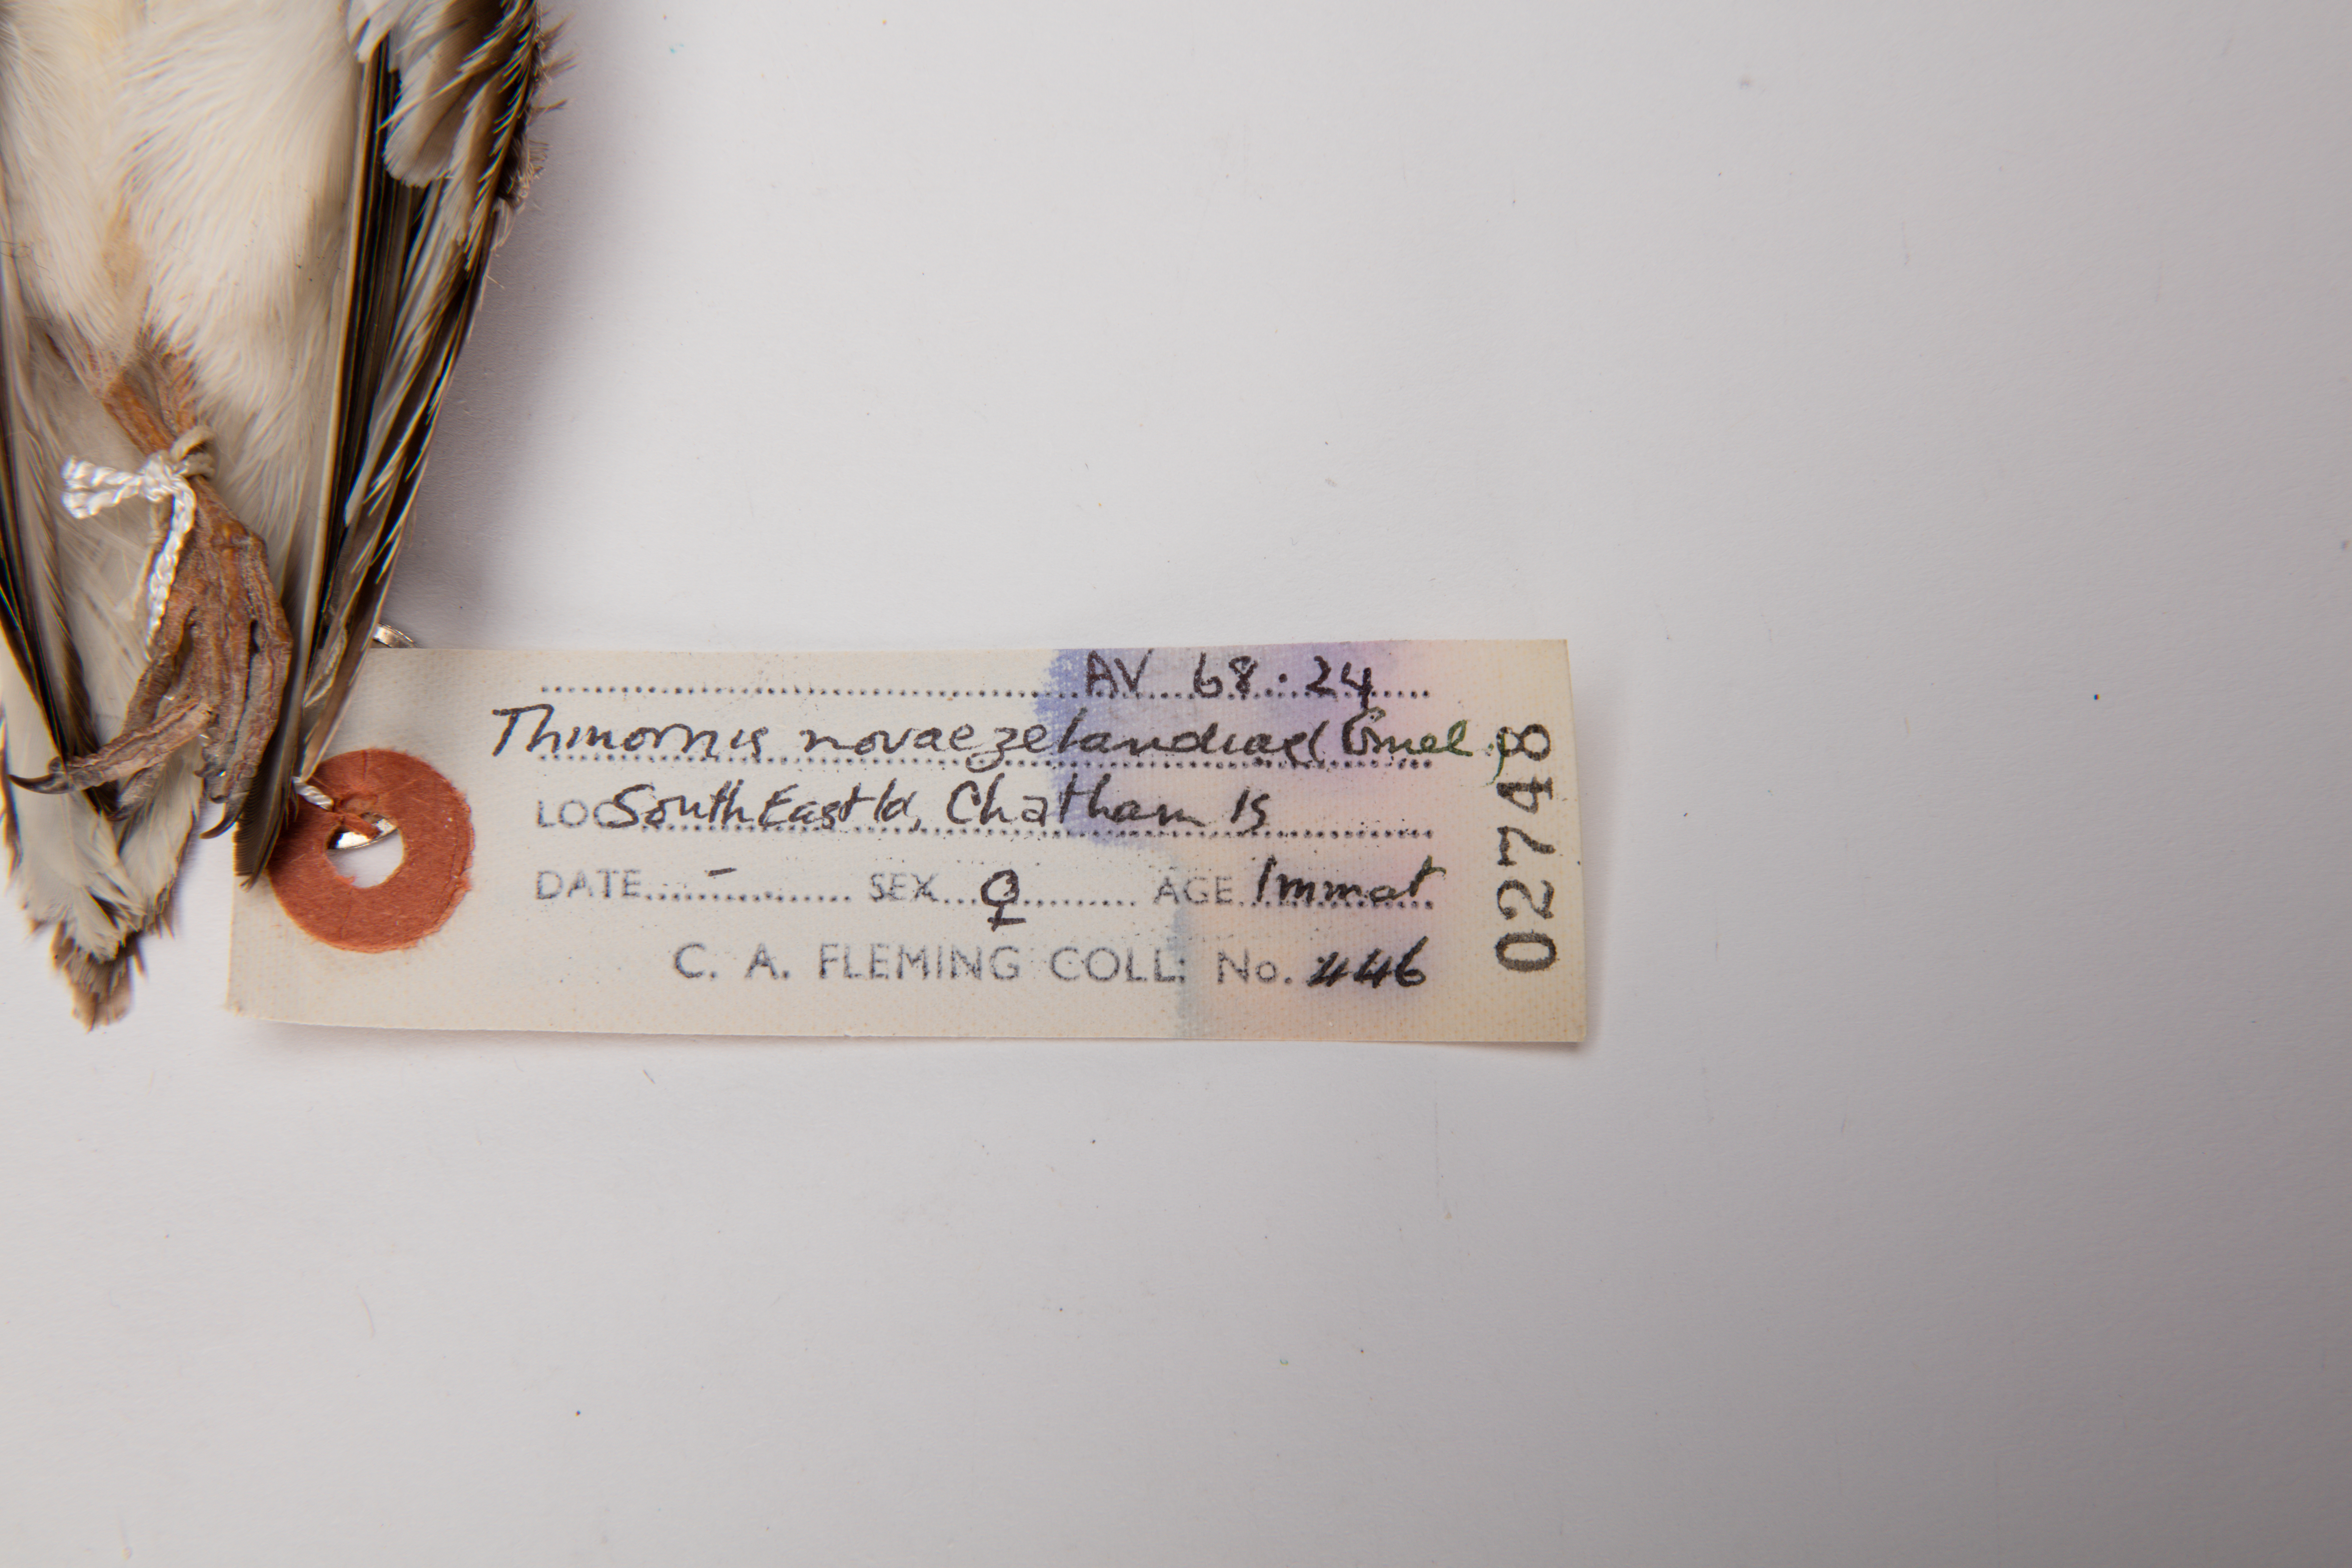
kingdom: Animalia
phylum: Chordata
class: Aves
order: Charadriiformes
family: Charadriidae
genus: Thinornis
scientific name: Thinornis novaeseelandiae
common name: Shore dotterel
